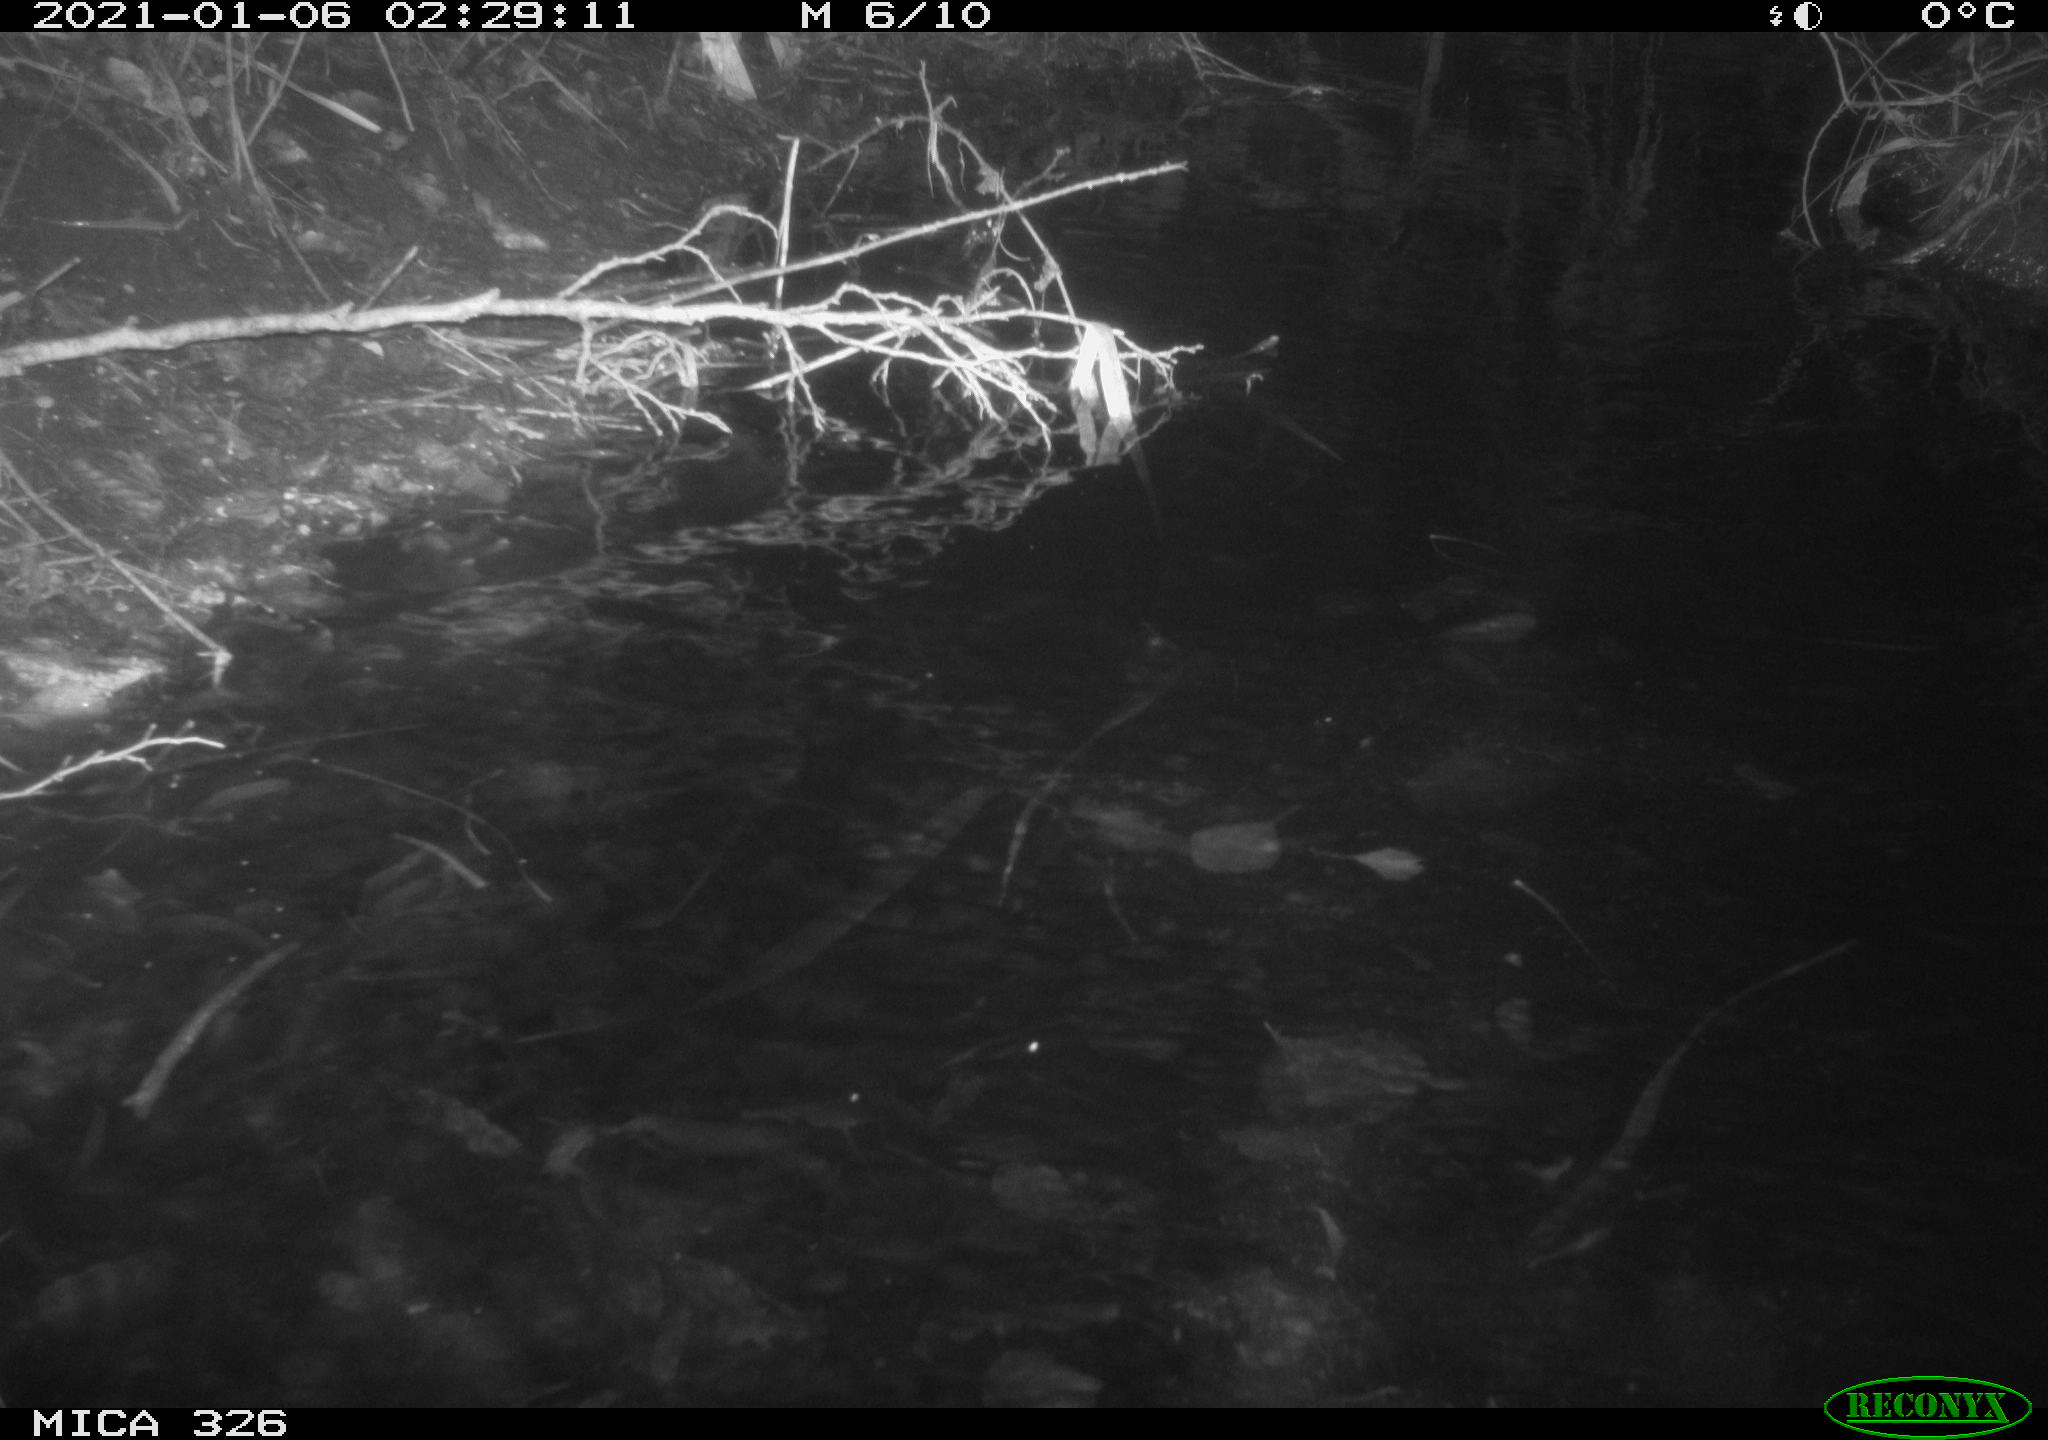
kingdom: Animalia
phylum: Chordata
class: Mammalia
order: Rodentia
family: Myocastoridae
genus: Myocastor
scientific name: Myocastor coypus
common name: Coypu
